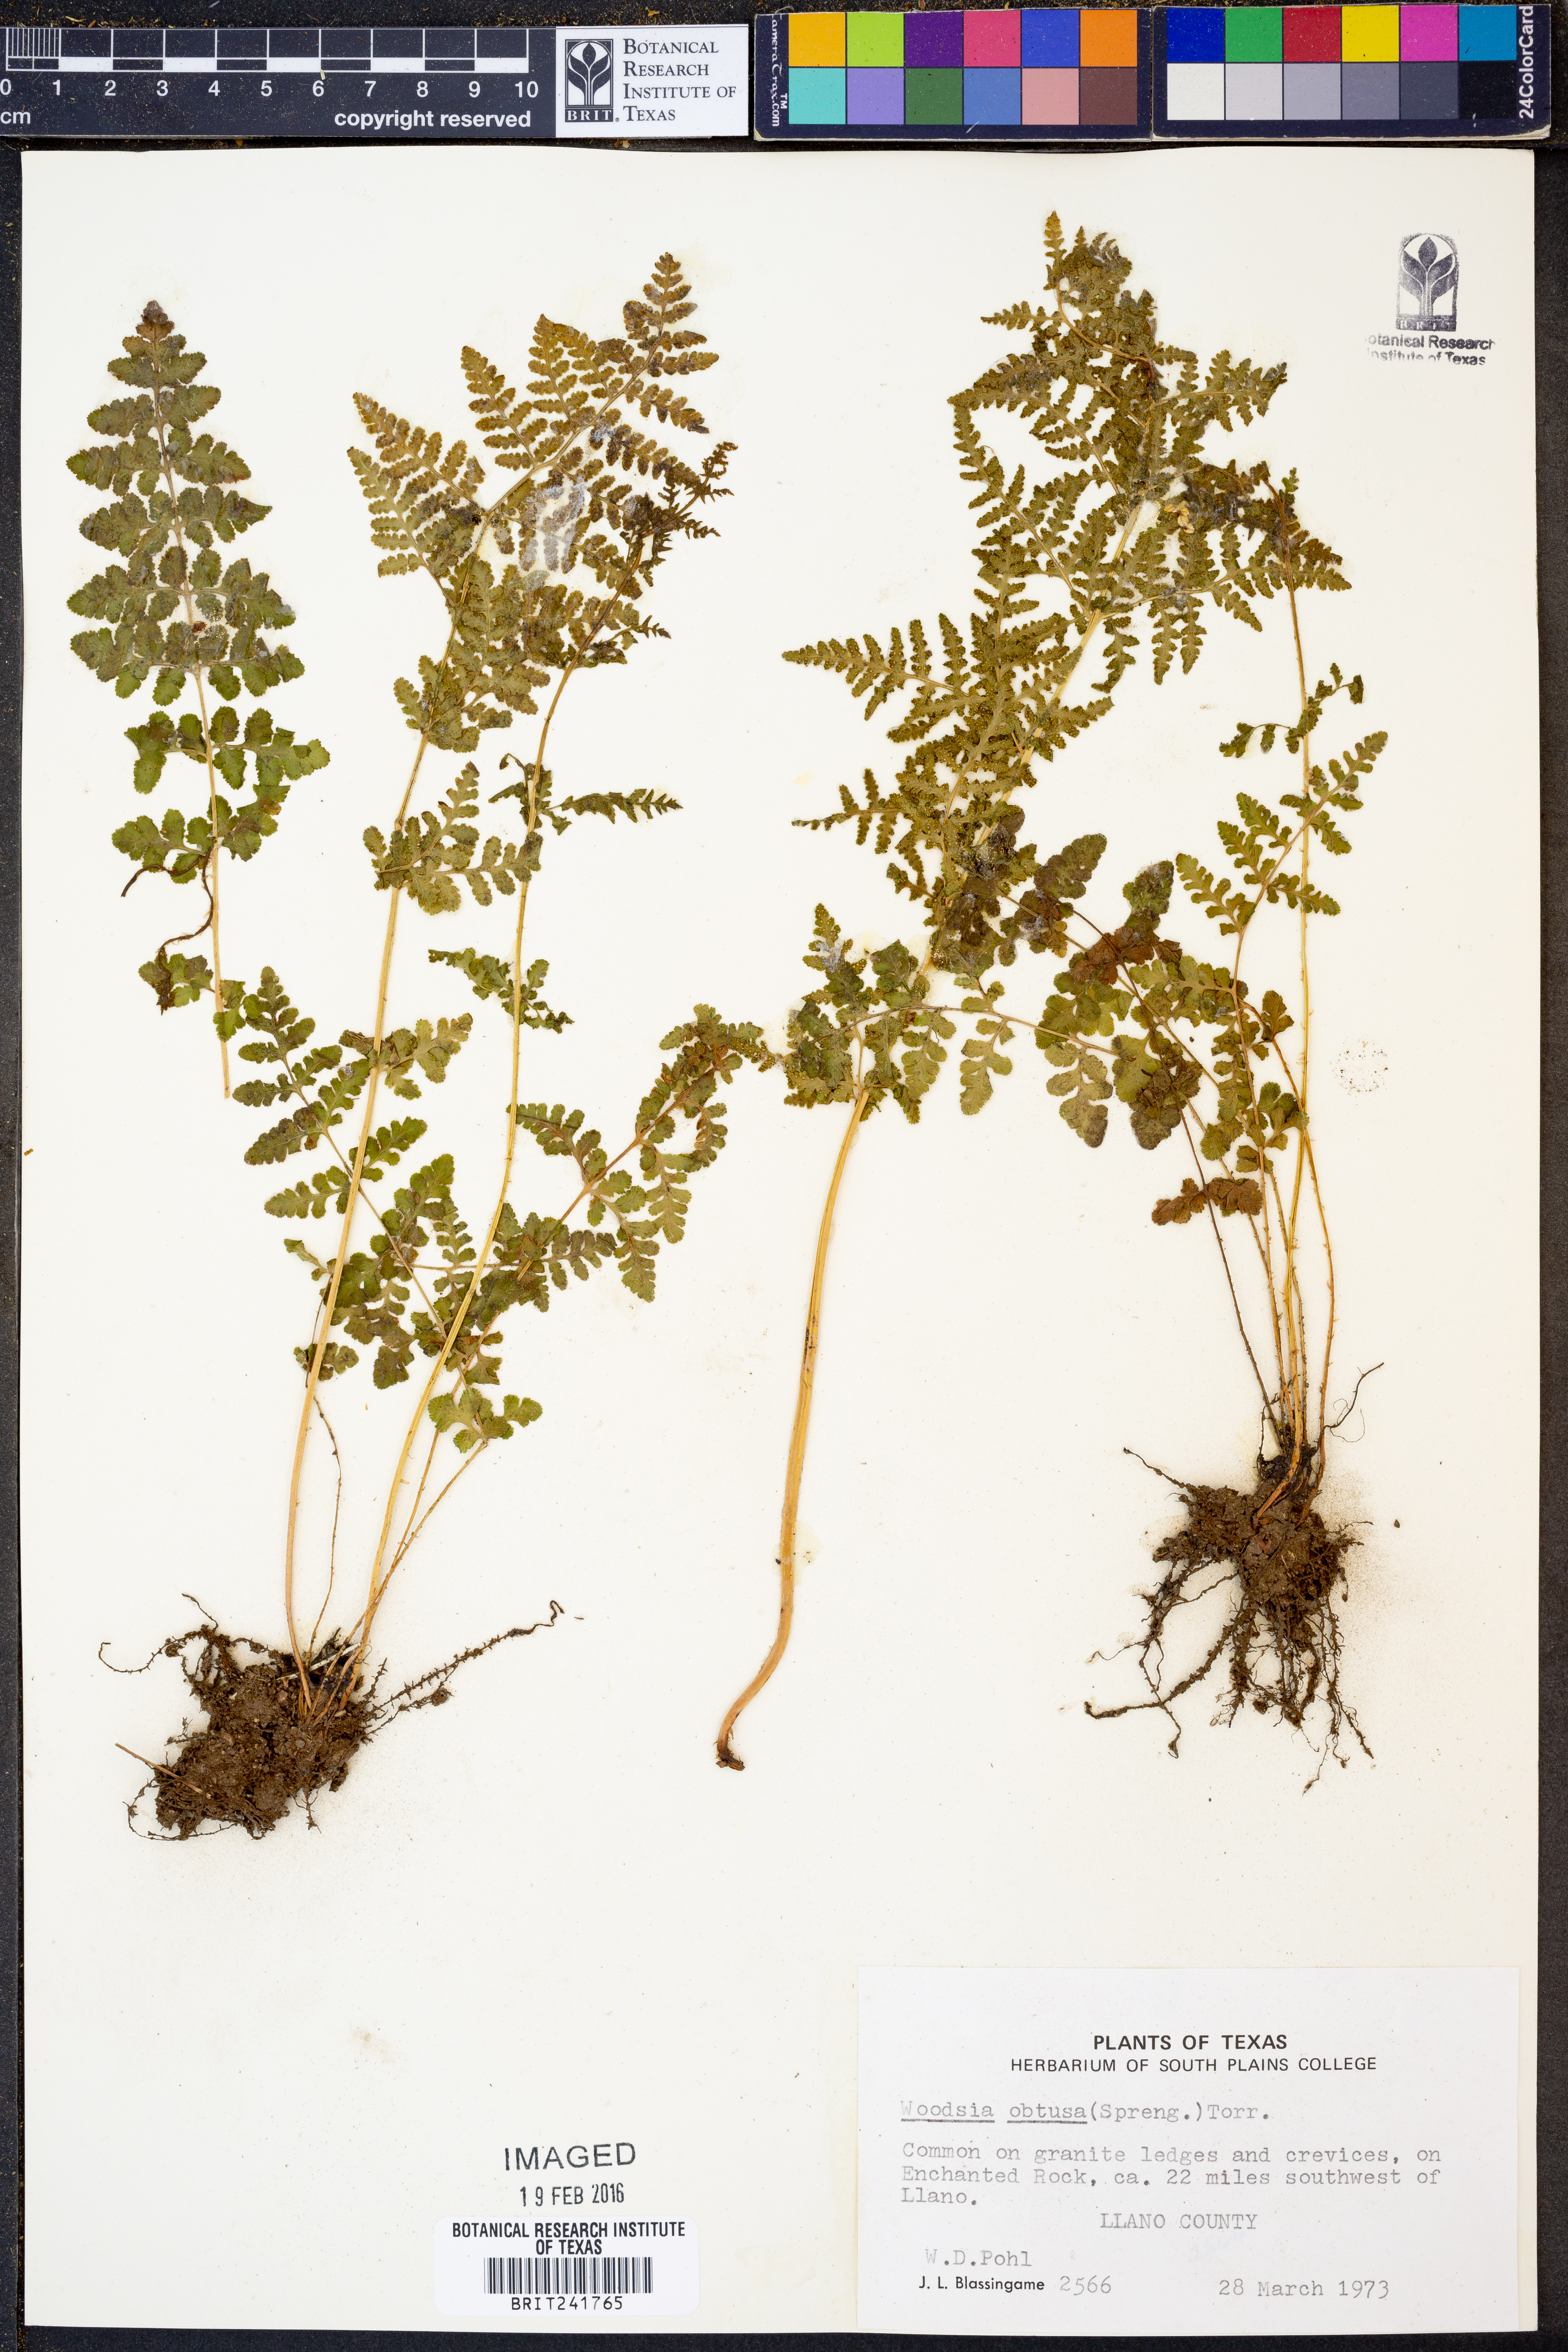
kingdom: Plantae
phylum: Tracheophyta
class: Polypodiopsida
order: Polypodiales
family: Woodsiaceae
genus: Physematium
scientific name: Physematium obtusum
